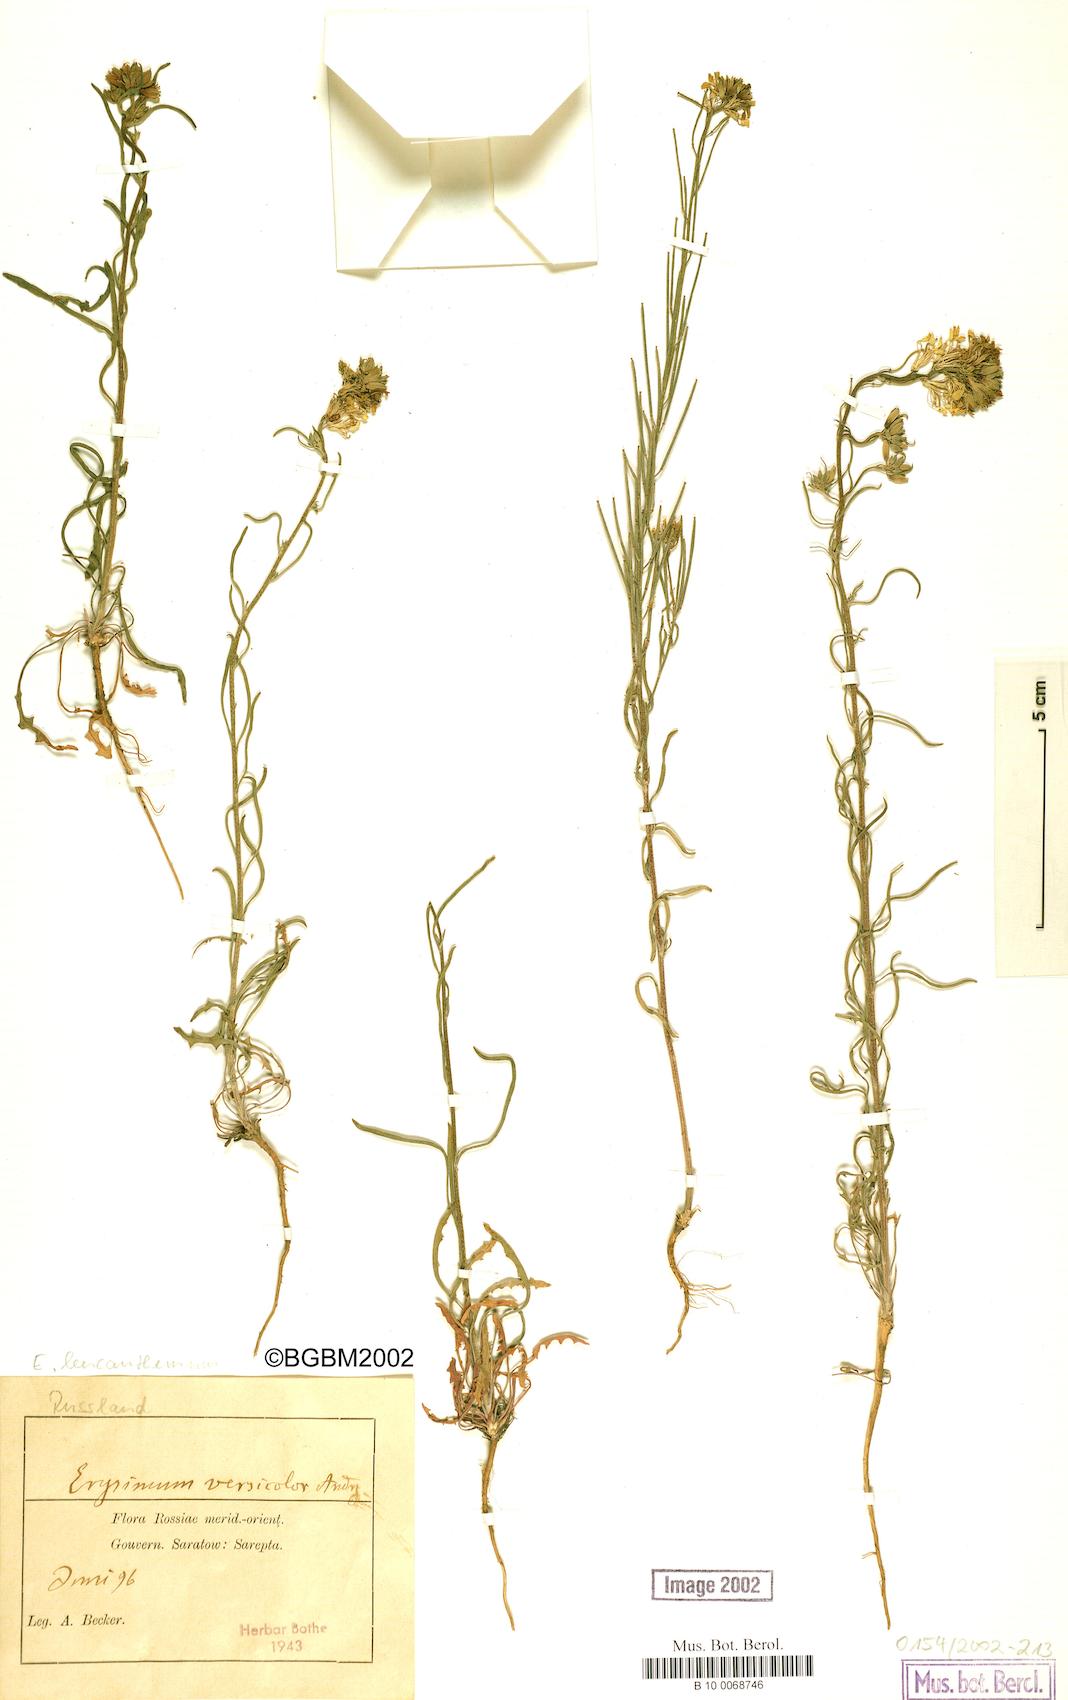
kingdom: Plantae
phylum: Tracheophyta
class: Magnoliopsida
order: Brassicales
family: Brassicaceae
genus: Erysimum
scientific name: Erysimum leucanthemum
